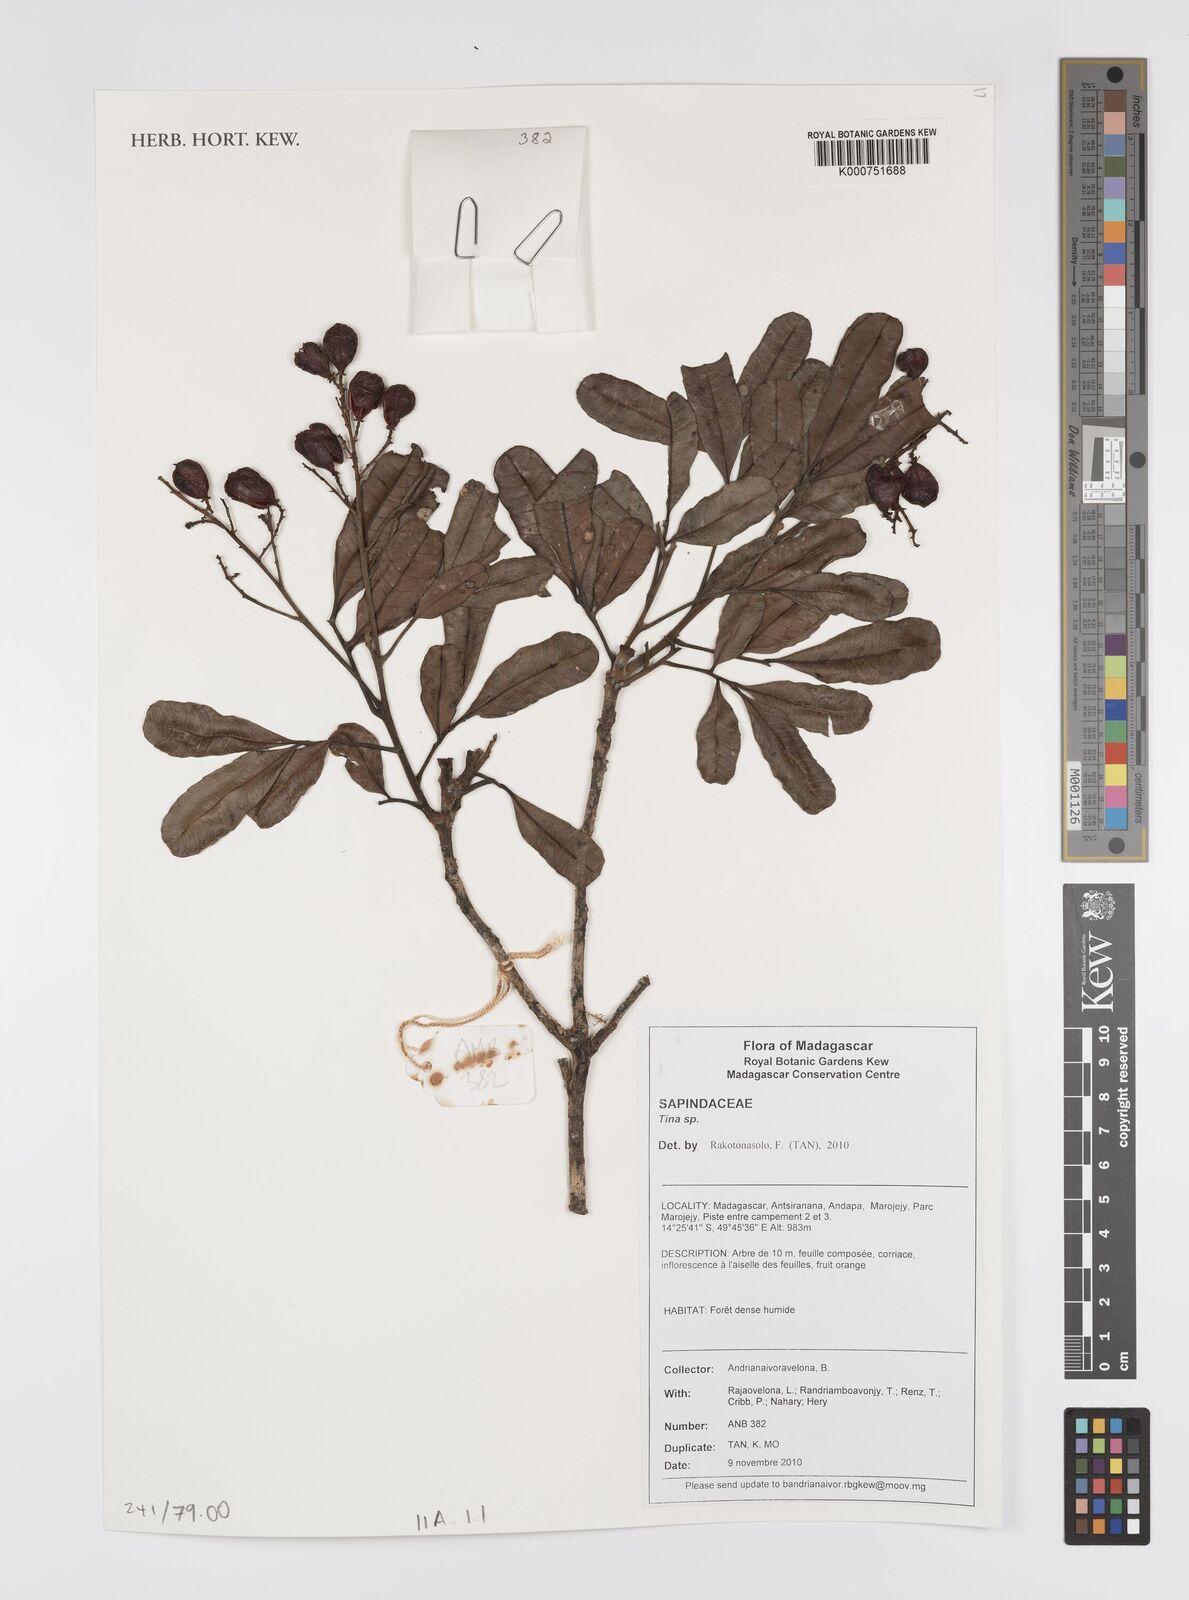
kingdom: Plantae
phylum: Tracheophyta
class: Magnoliopsida
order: Sapindales
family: Sapindaceae
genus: Tina
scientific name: Tina
